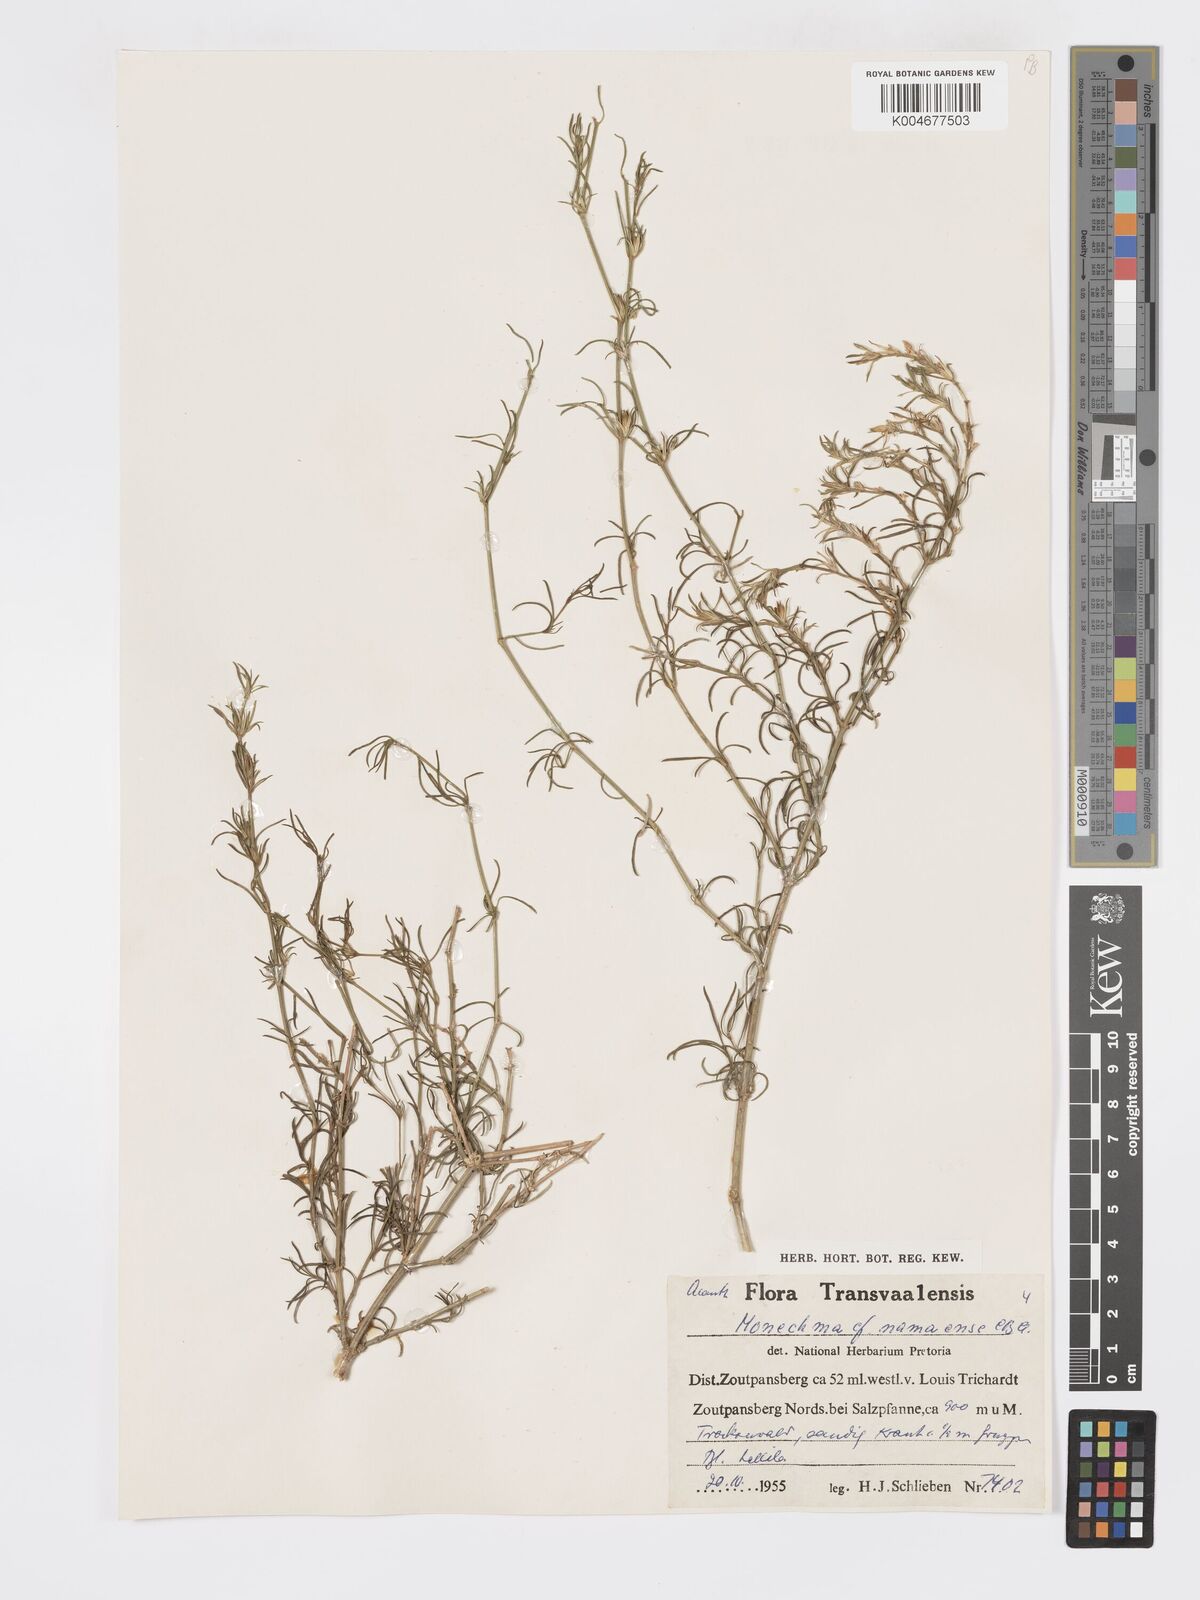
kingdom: Plantae
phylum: Tracheophyta
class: Magnoliopsida
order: Lamiales
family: Acanthaceae
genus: Pogonospermum
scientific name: Pogonospermum
